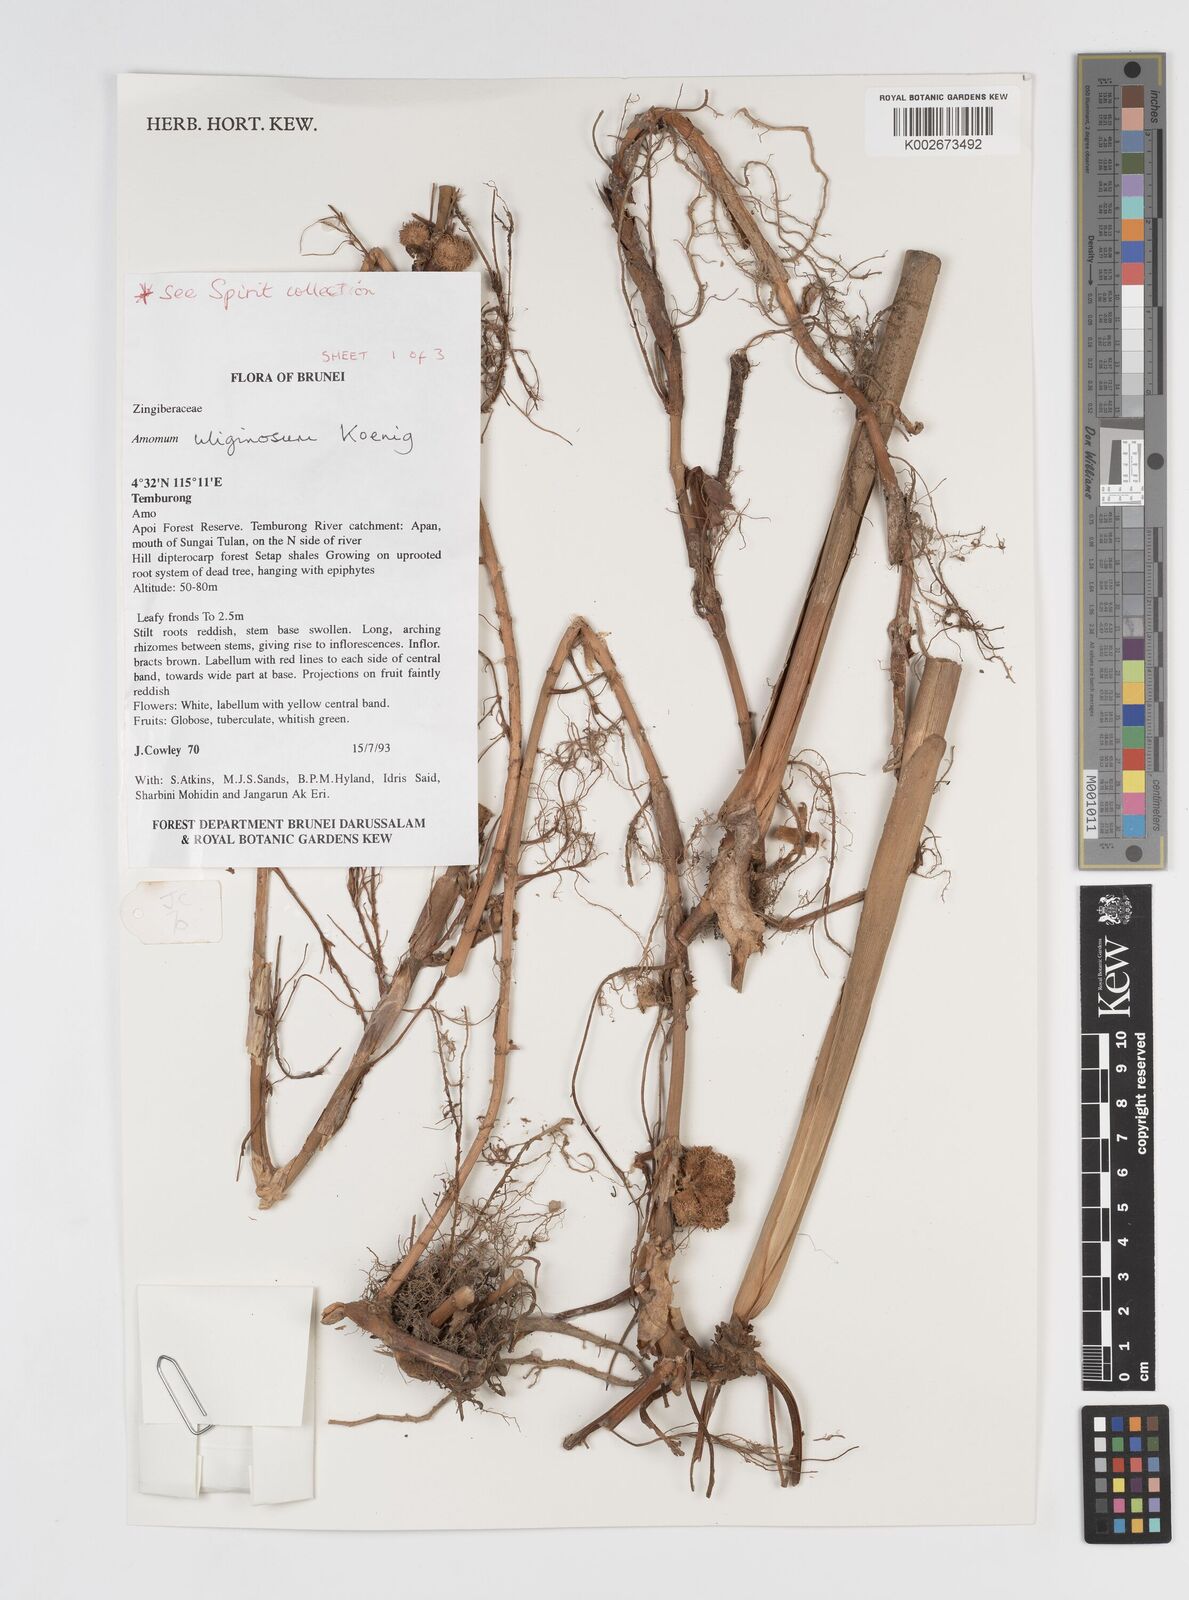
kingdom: Plantae
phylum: Tracheophyta
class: Liliopsida
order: Zingiberales
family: Zingiberaceae
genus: Wurfbainia
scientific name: Wurfbainia uliginosa
